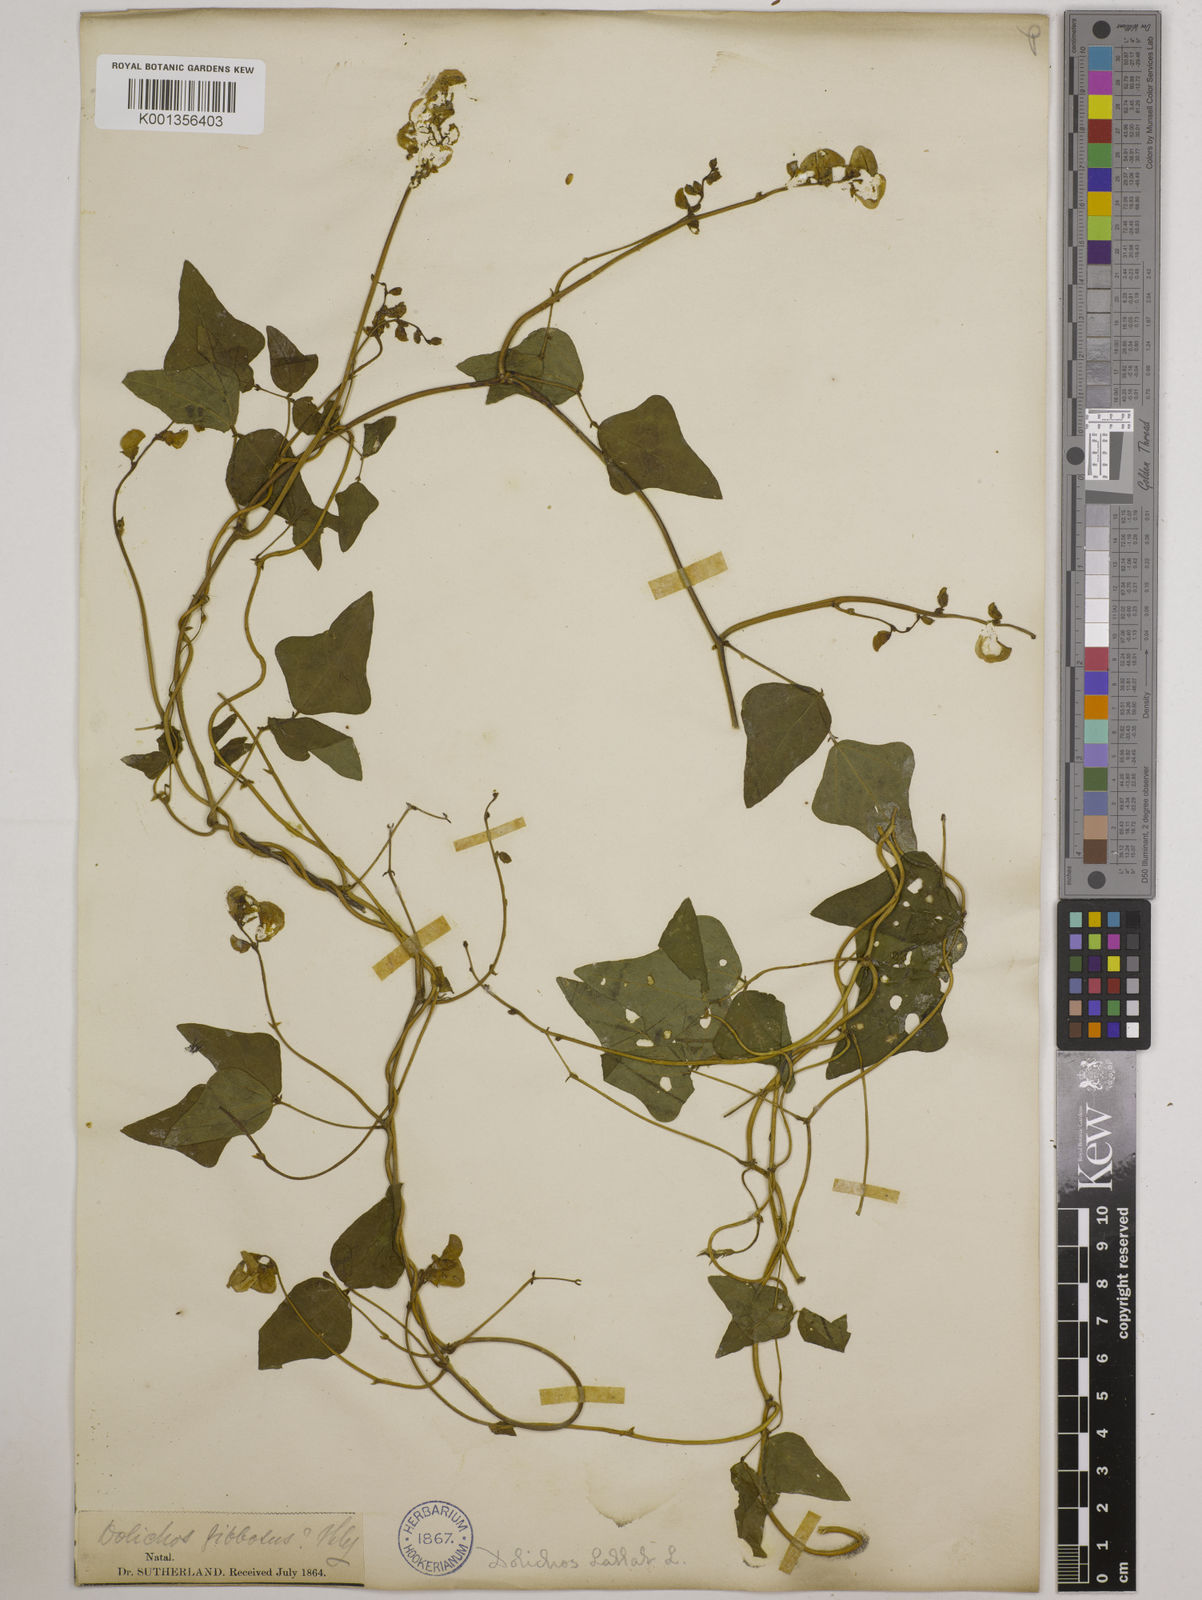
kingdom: Plantae
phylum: Tracheophyta
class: Magnoliopsida
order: Fabales
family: Fabaceae
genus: Lablab
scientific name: Lablab purpureus
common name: Lablab-bean
